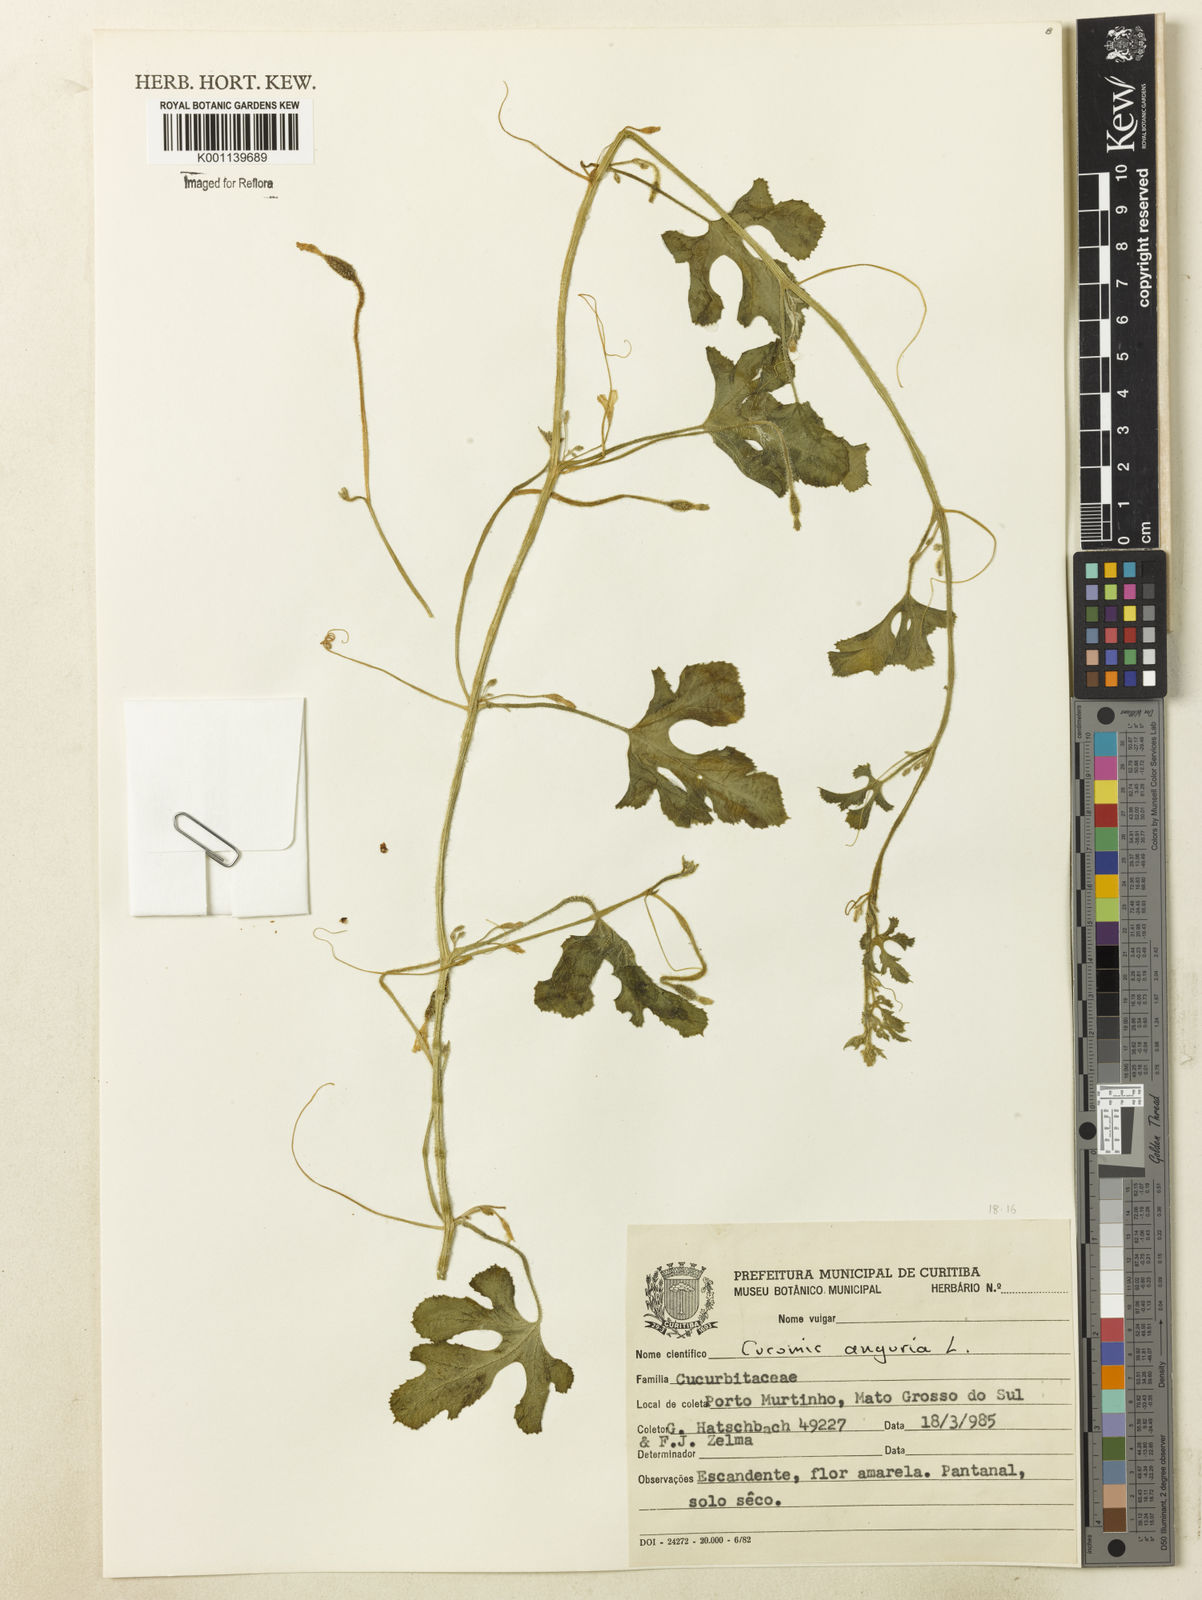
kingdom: Plantae
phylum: Tracheophyta
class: Magnoliopsida
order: Cucurbitales
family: Cucurbitaceae
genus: Cucumis
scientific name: Cucumis anguria
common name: West indian gherkin
